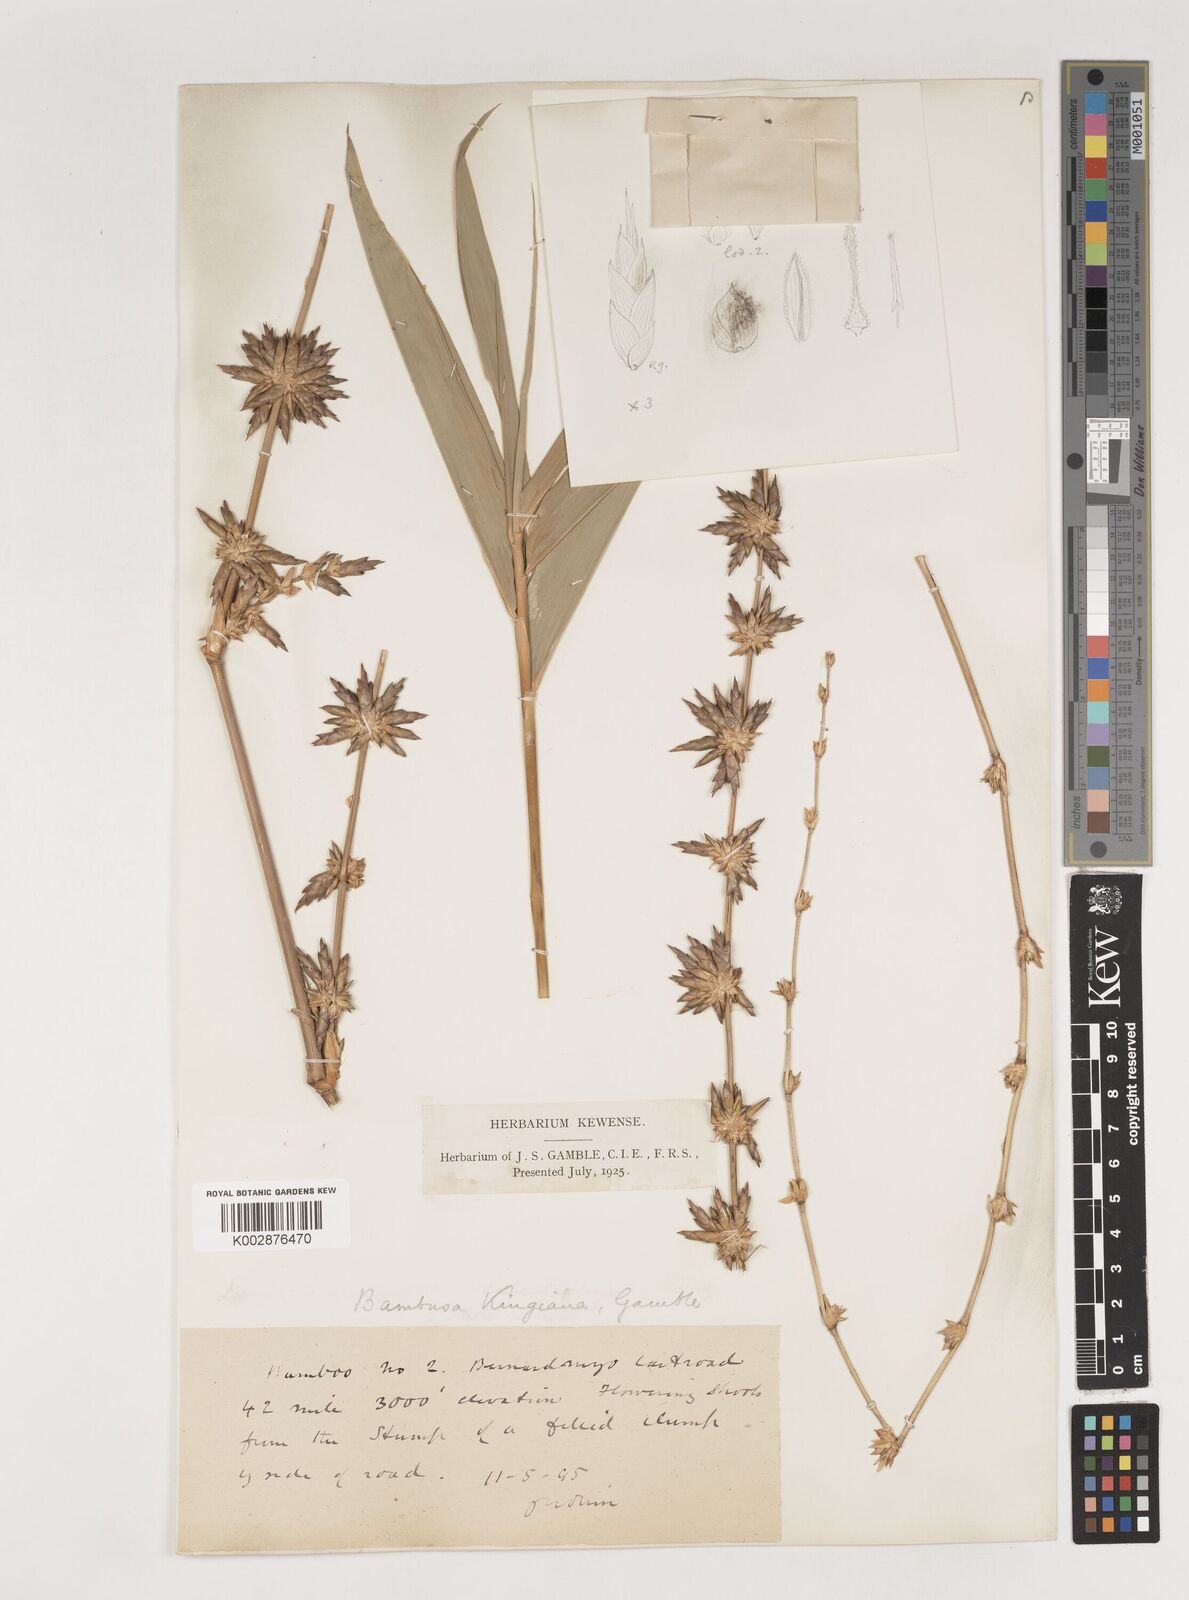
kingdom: Plantae
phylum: Tracheophyta
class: Liliopsida
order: Poales
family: Poaceae
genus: Bambusa
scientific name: Bambusa kingiana
